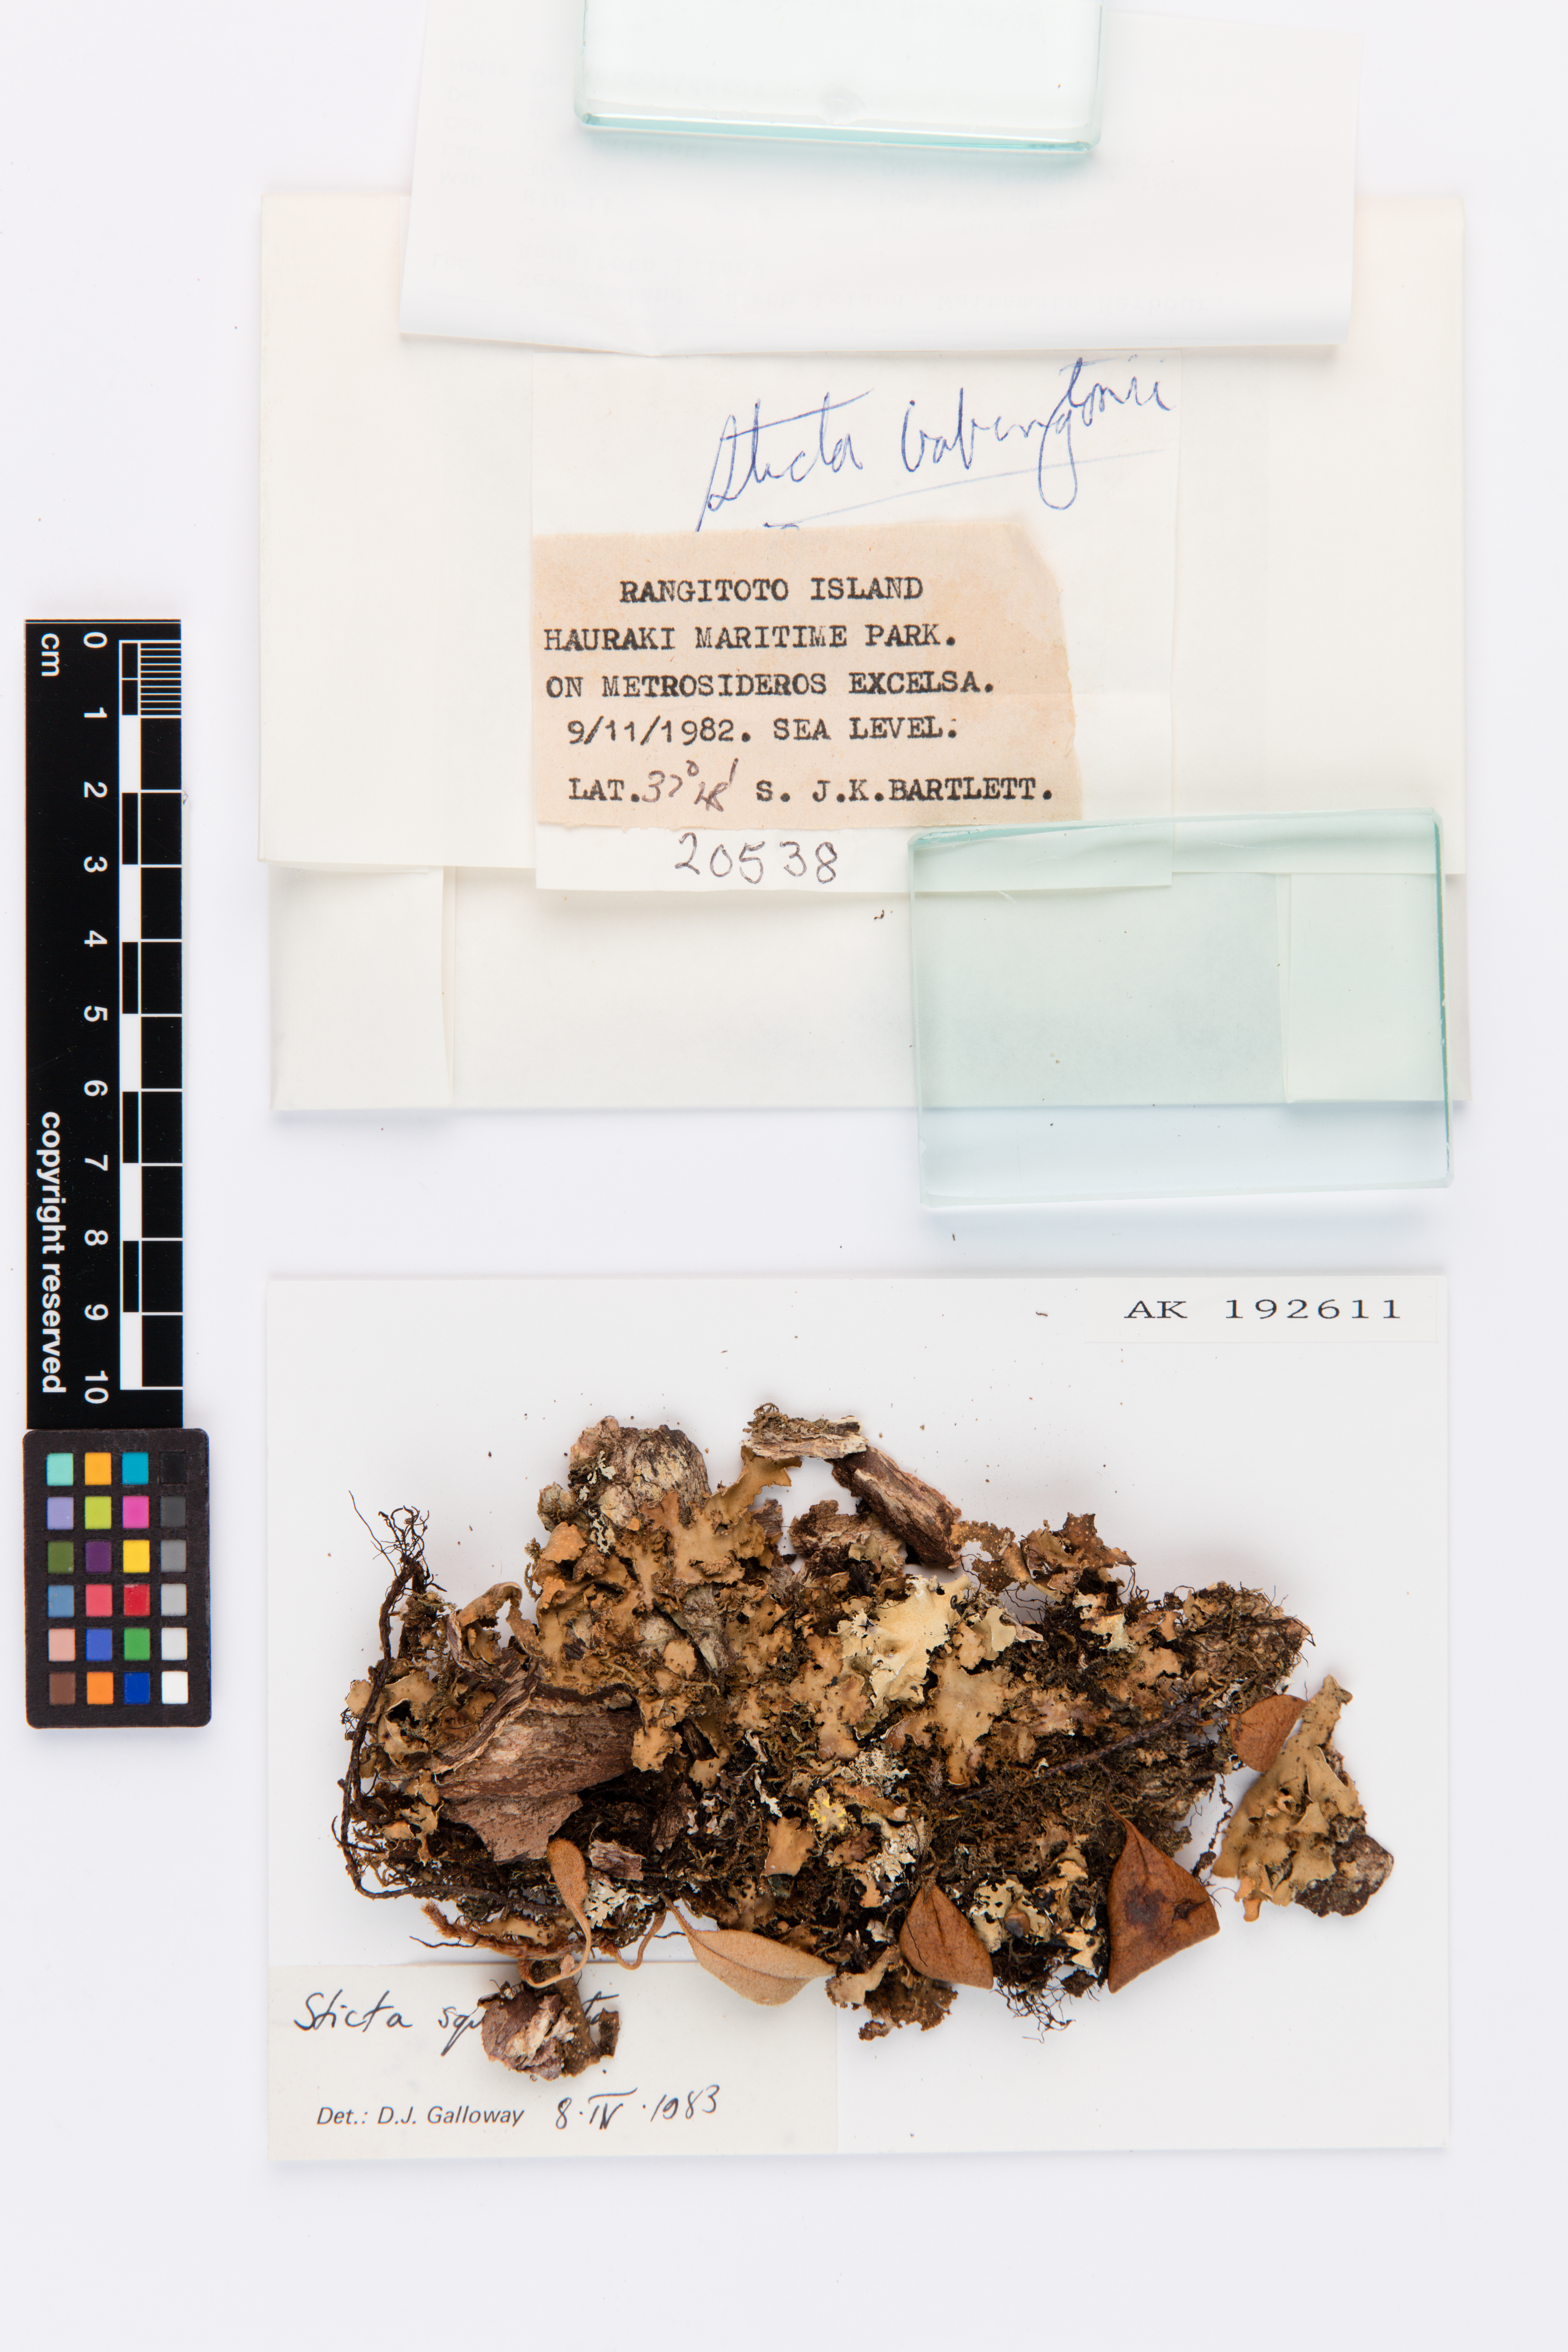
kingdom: Fungi
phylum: Ascomycota
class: Lecanoromycetes
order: Peltigerales
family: Lobariaceae
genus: Sticta
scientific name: Sticta squamata
